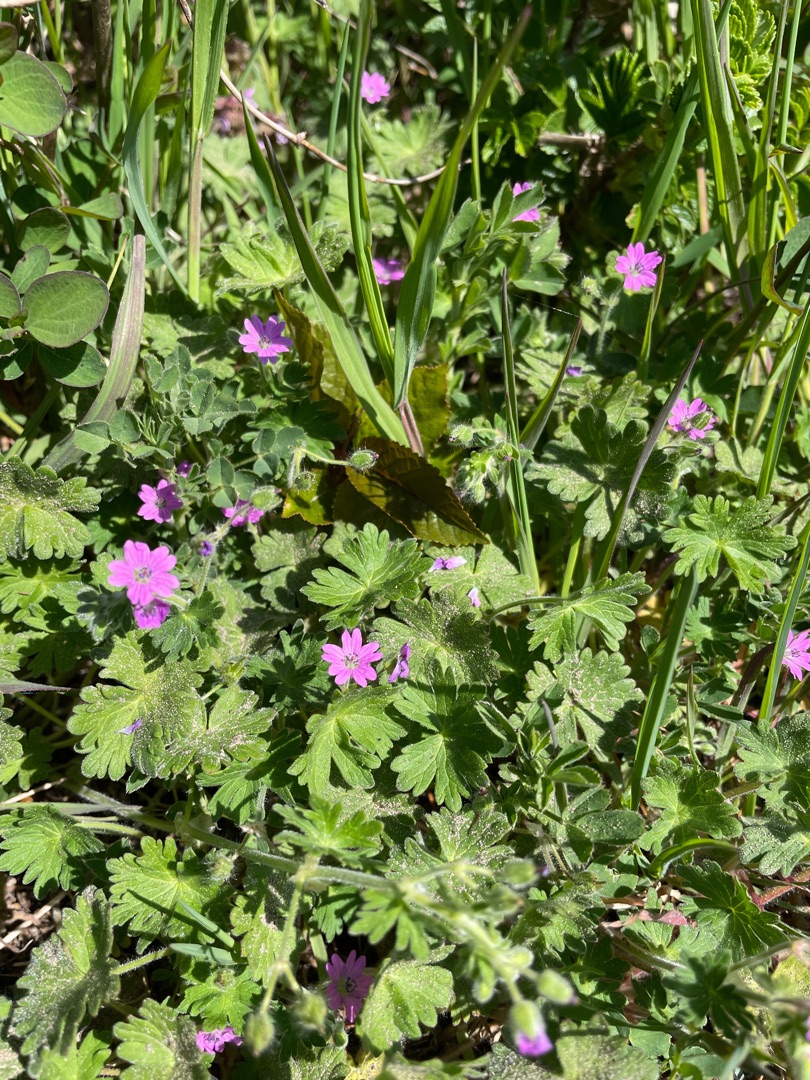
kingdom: Plantae
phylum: Tracheophyta
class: Magnoliopsida
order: Geraniales
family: Geraniaceae
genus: Geranium
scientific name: Geranium molle
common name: Blød storkenæb
